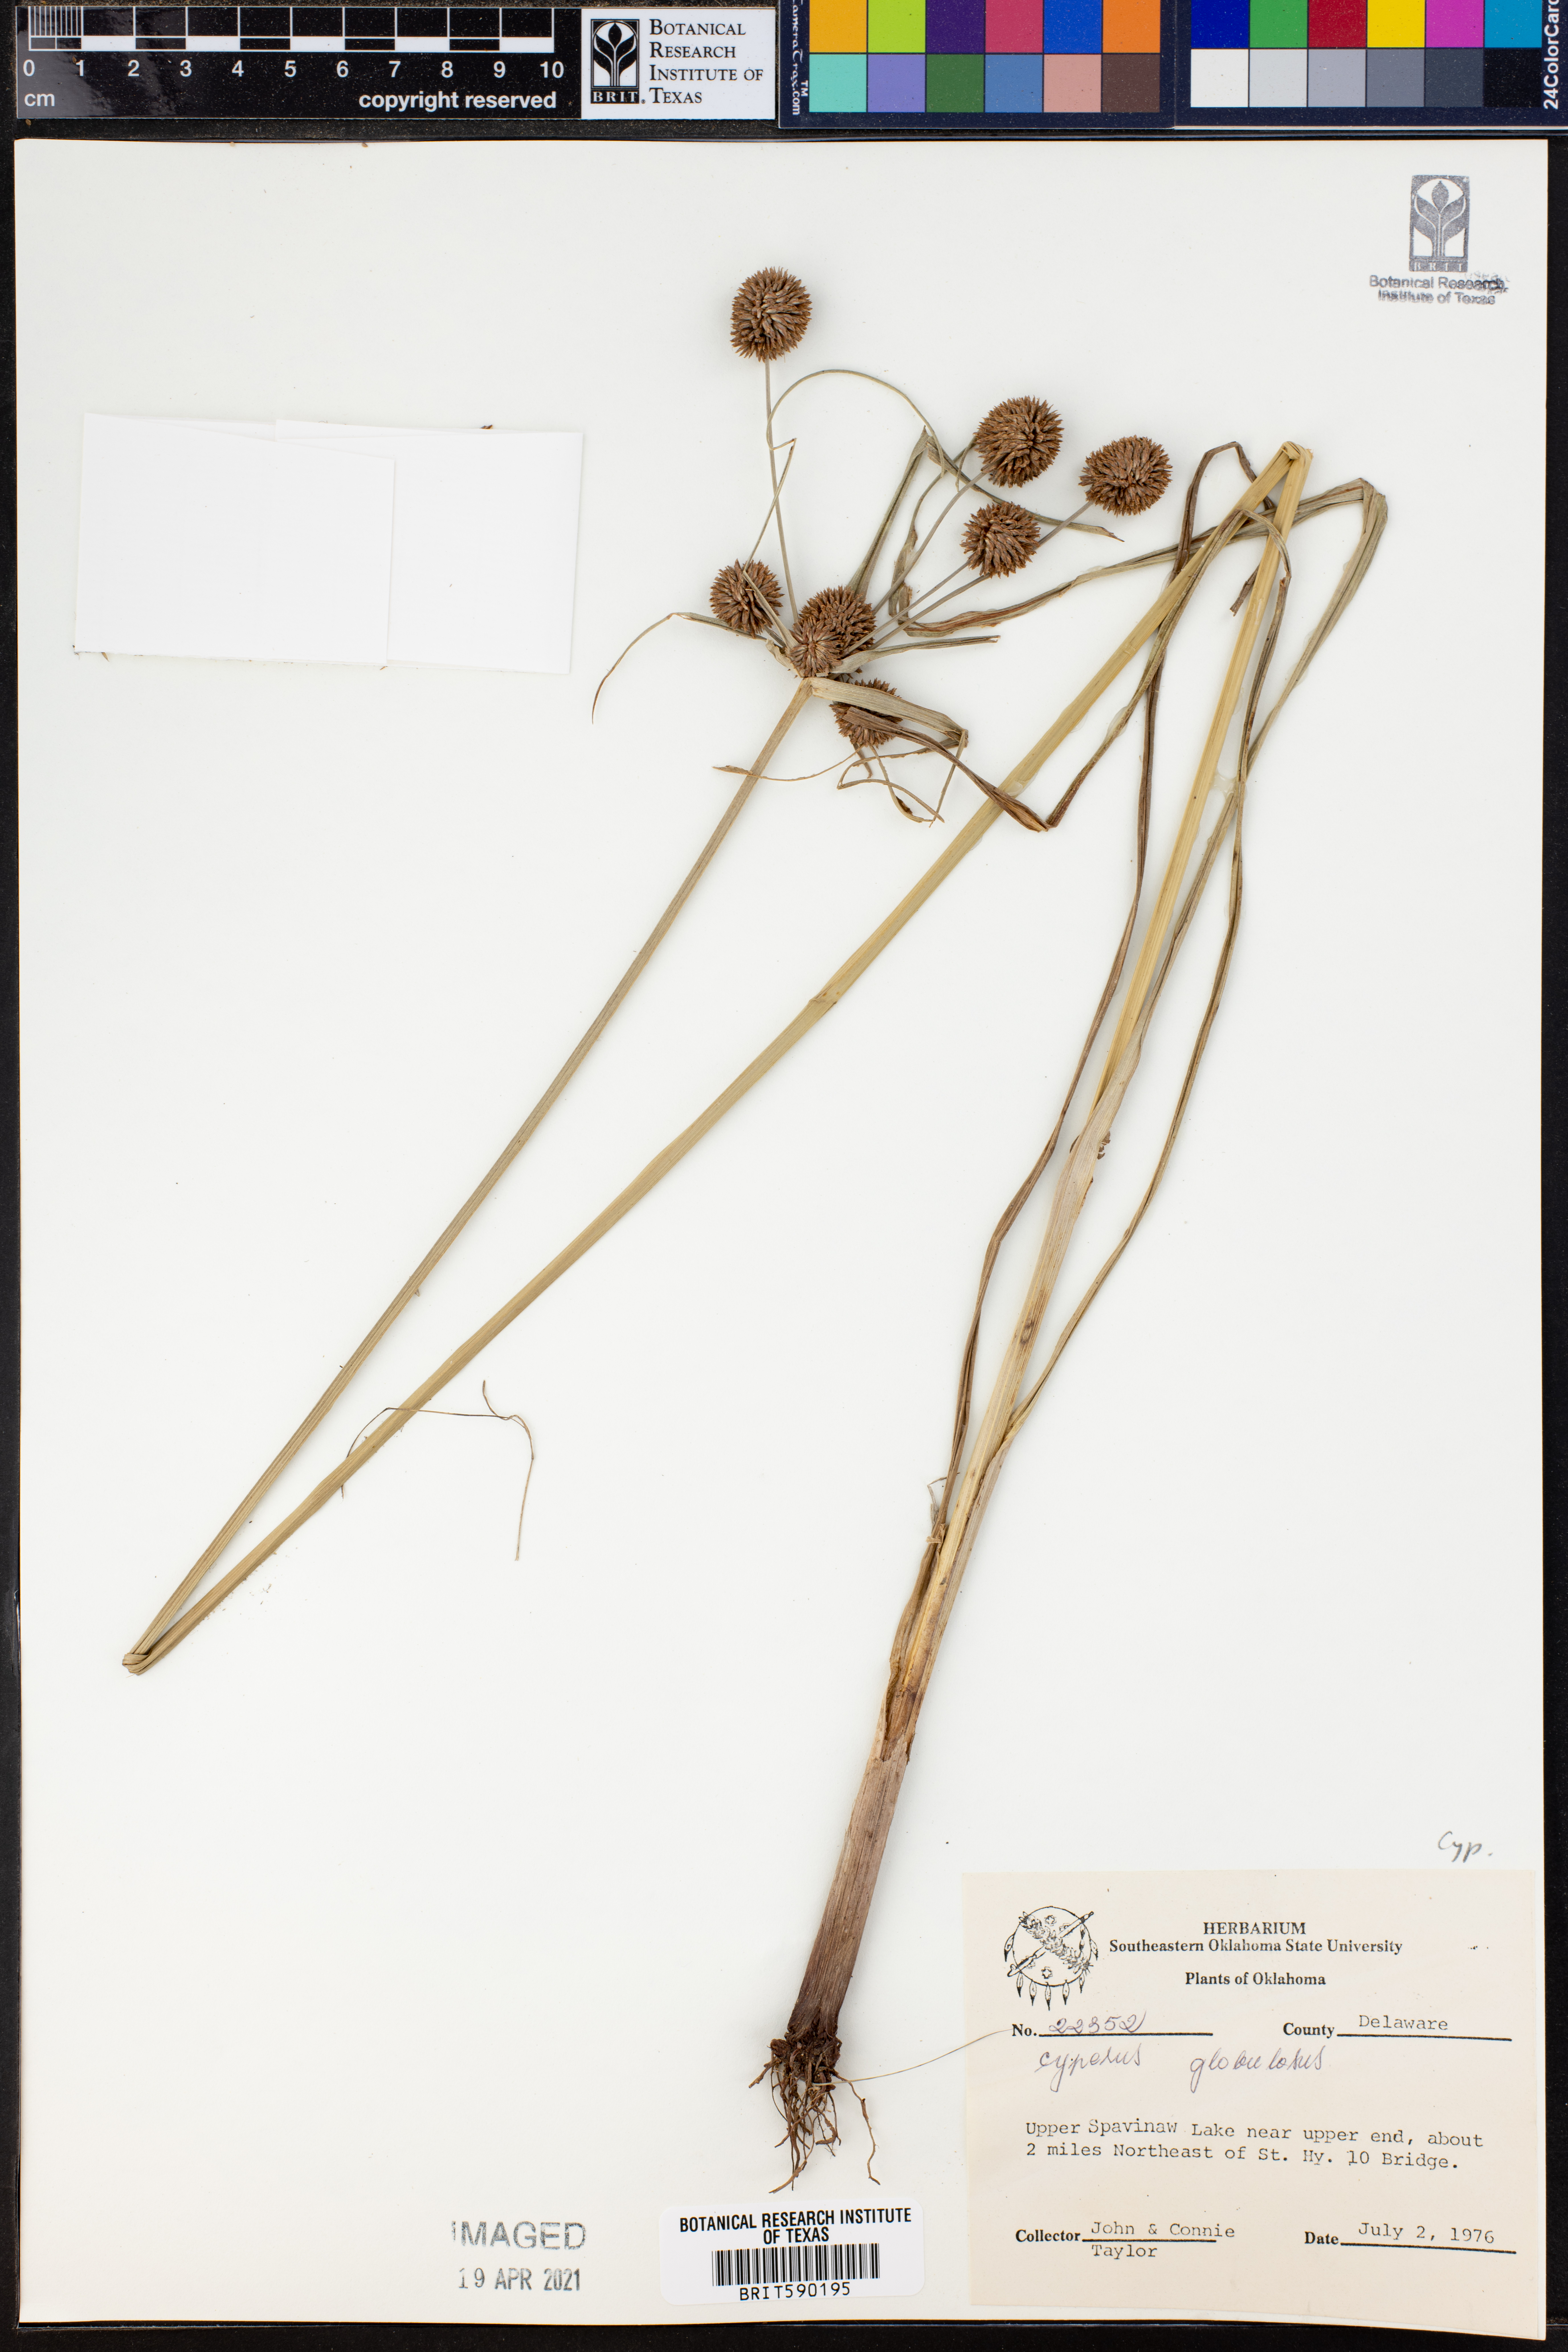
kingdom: Plantae
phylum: Tracheophyta
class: Liliopsida
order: Poales
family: Cyperaceae
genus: Cyperus
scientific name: Cyperus luzulae
